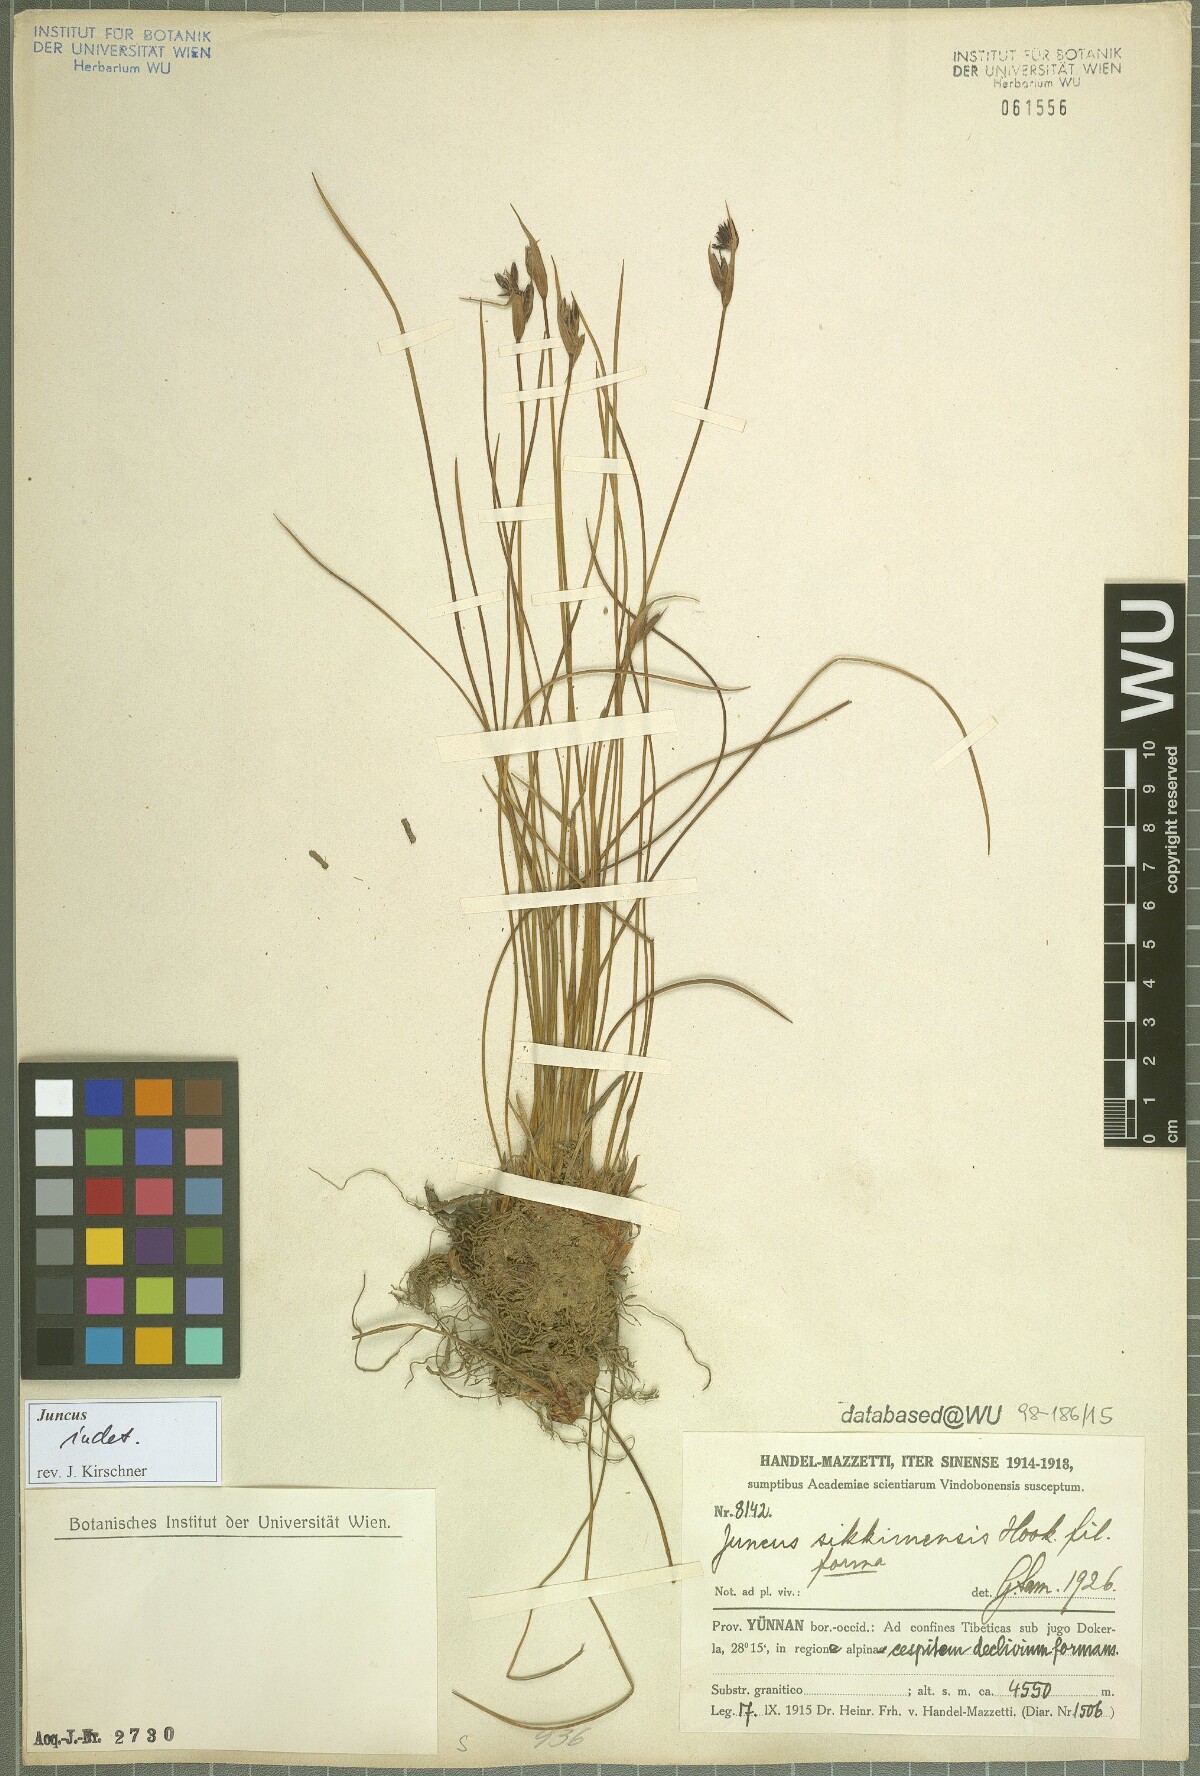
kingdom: Plantae
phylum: Tracheophyta
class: Liliopsida
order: Poales
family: Juncaceae
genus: Juncus
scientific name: Juncus
